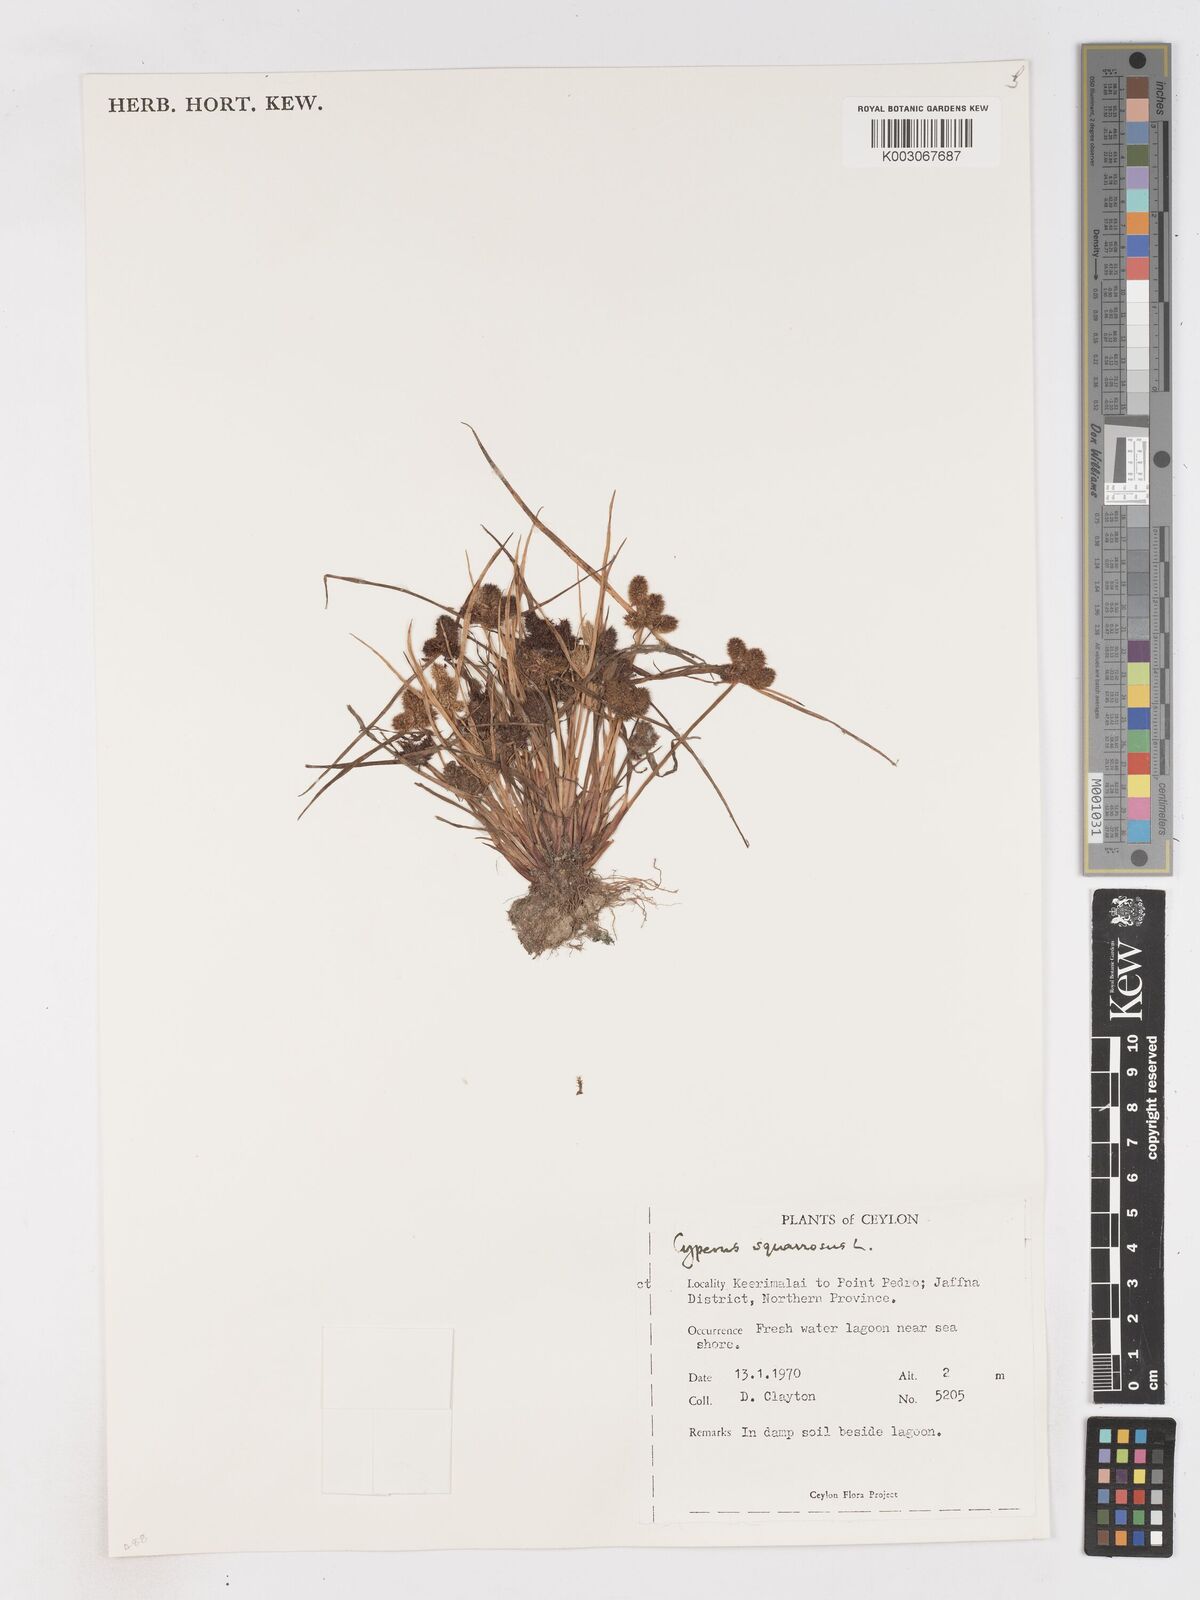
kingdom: Plantae
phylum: Tracheophyta
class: Liliopsida
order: Poales
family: Cyperaceae
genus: Cyperus
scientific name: Cyperus squarrosus
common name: Awned cyperus
